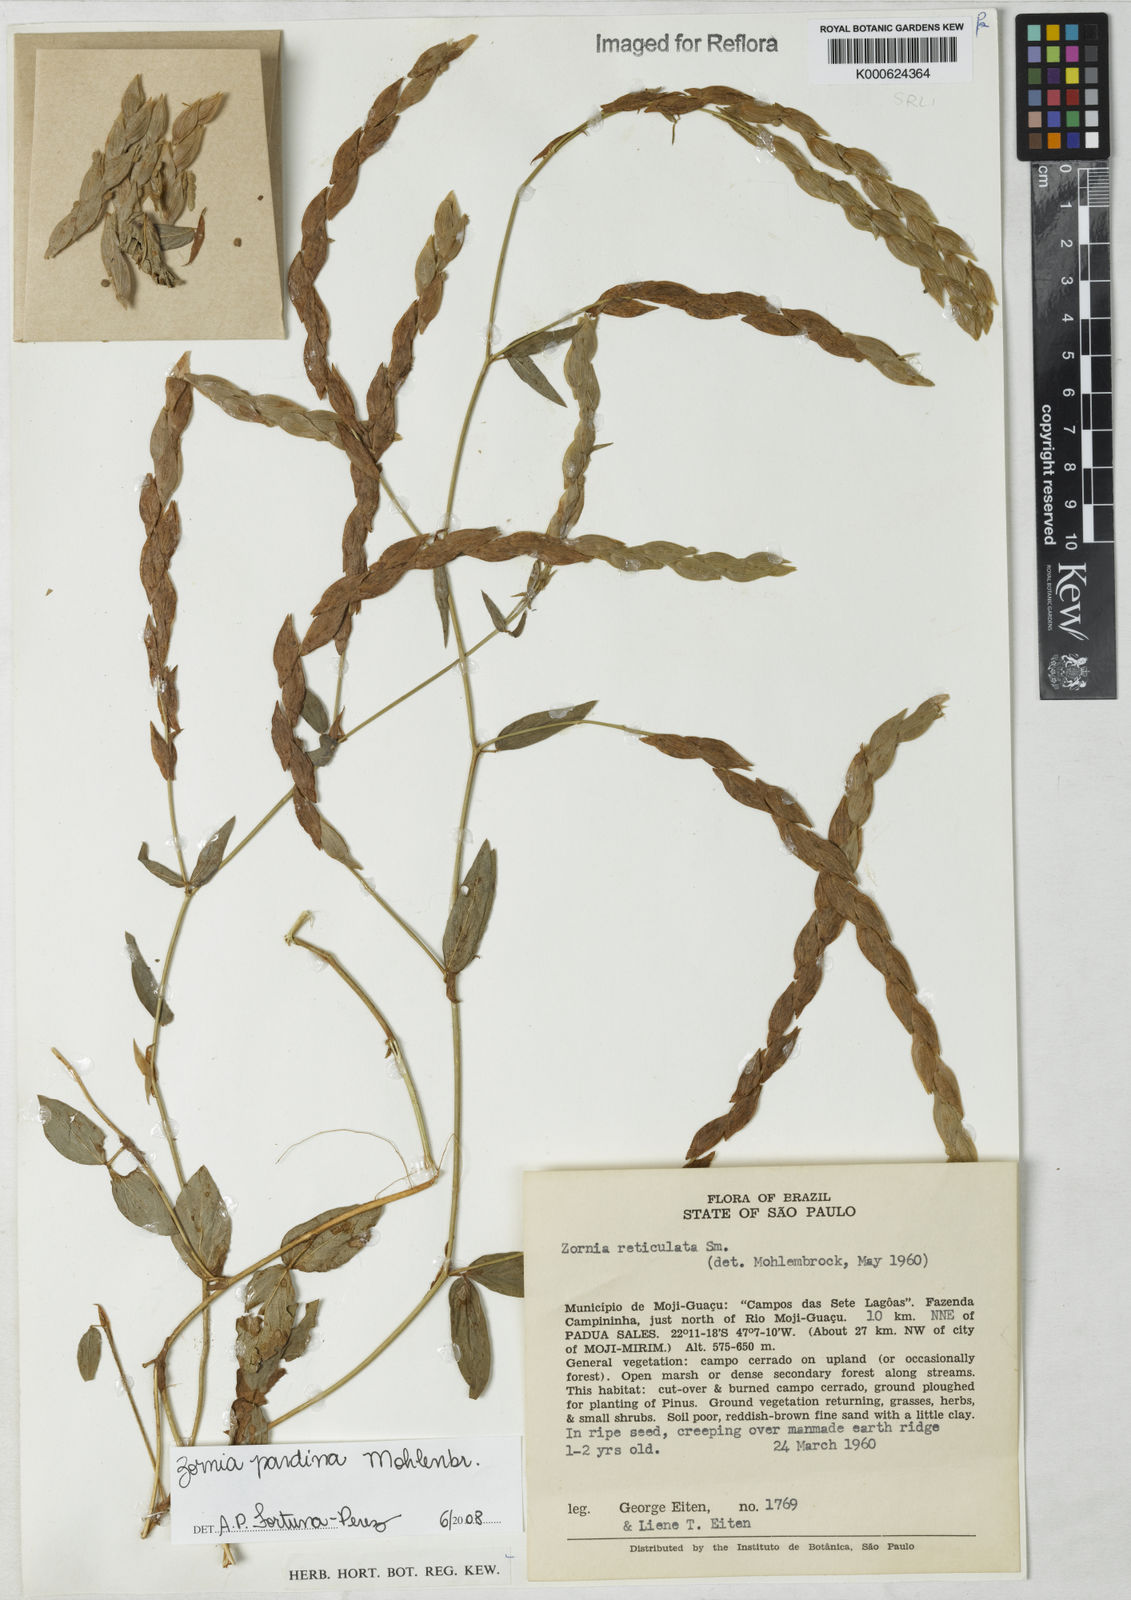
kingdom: Plantae
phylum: Tracheophyta
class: Magnoliopsida
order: Fabales
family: Fabaceae
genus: Zornia
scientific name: Zornia pardina
